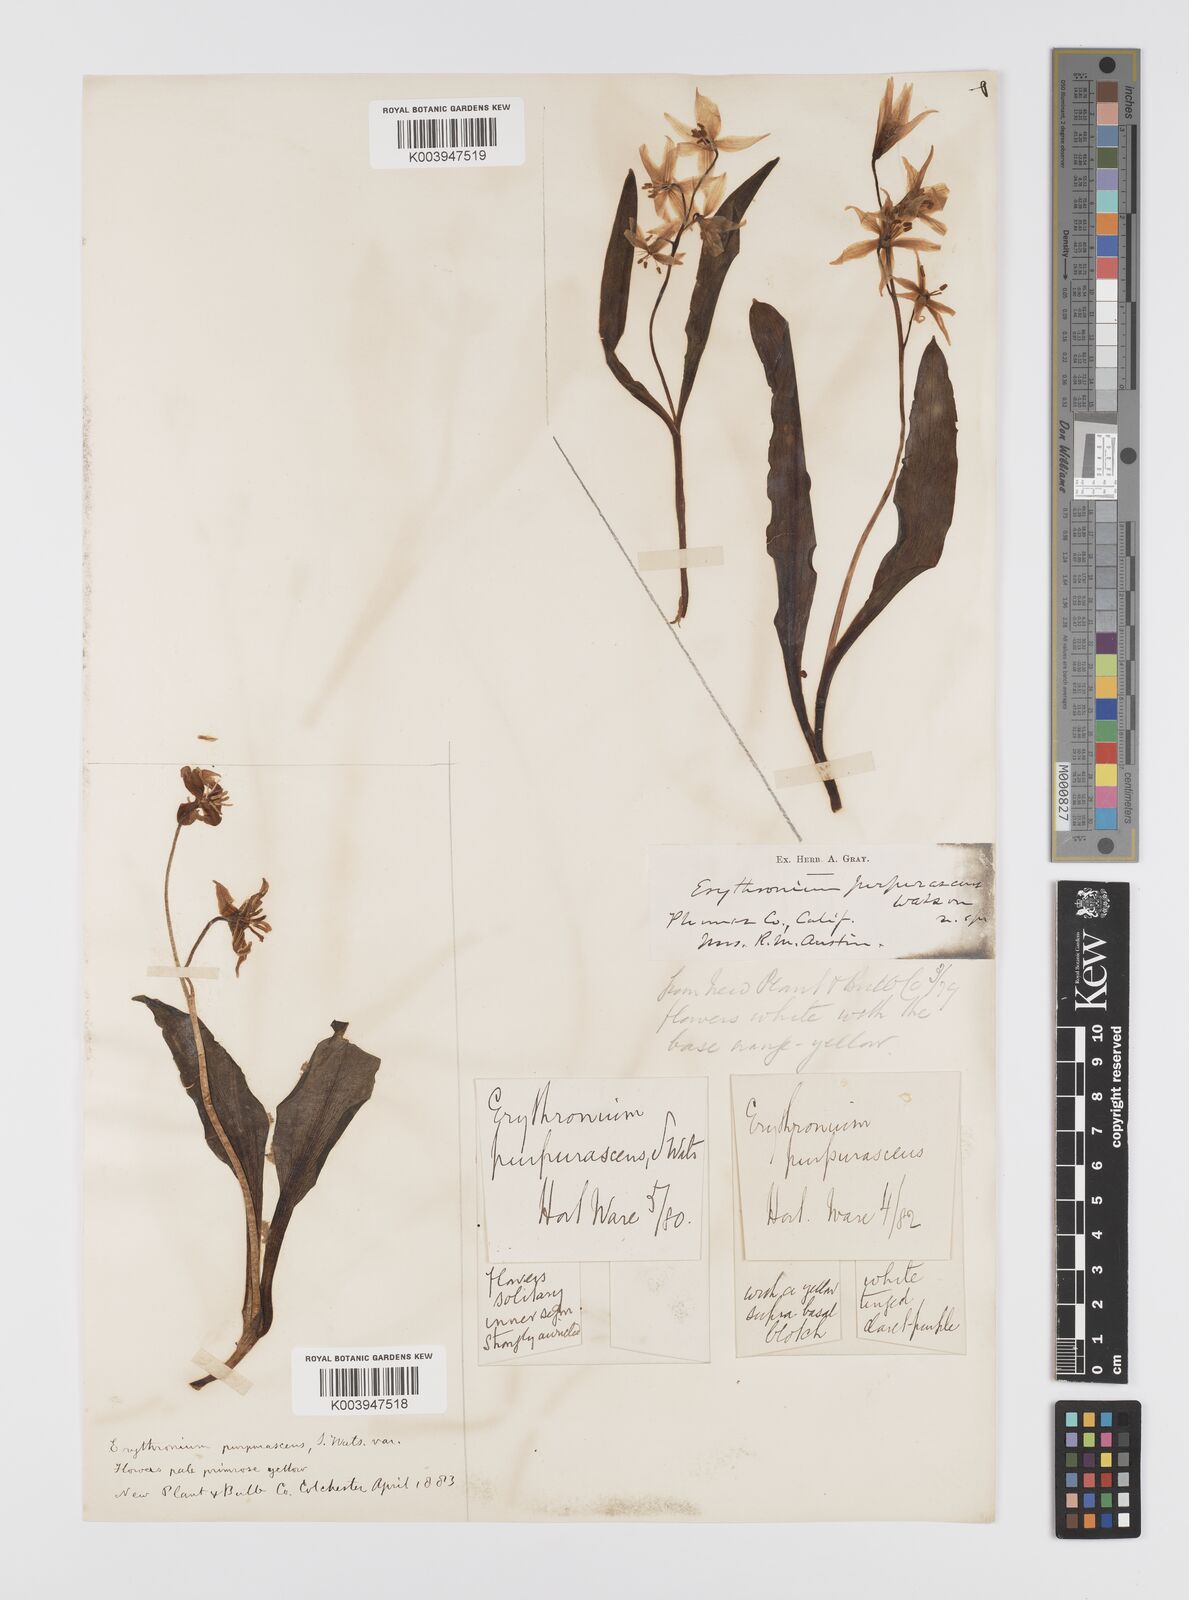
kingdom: Plantae
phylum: Tracheophyta
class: Liliopsida
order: Liliales
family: Liliaceae
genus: Erythronium
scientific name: Erythronium purpurascens
